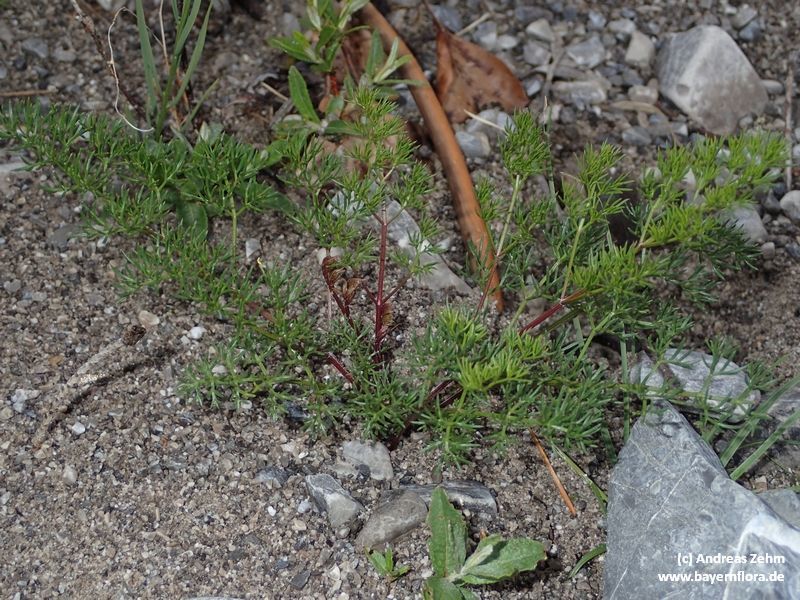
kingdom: Plantae
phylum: Tracheophyta
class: Magnoliopsida
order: Apiales
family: Apiaceae
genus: Athamanta
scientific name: Athamanta cretensis
